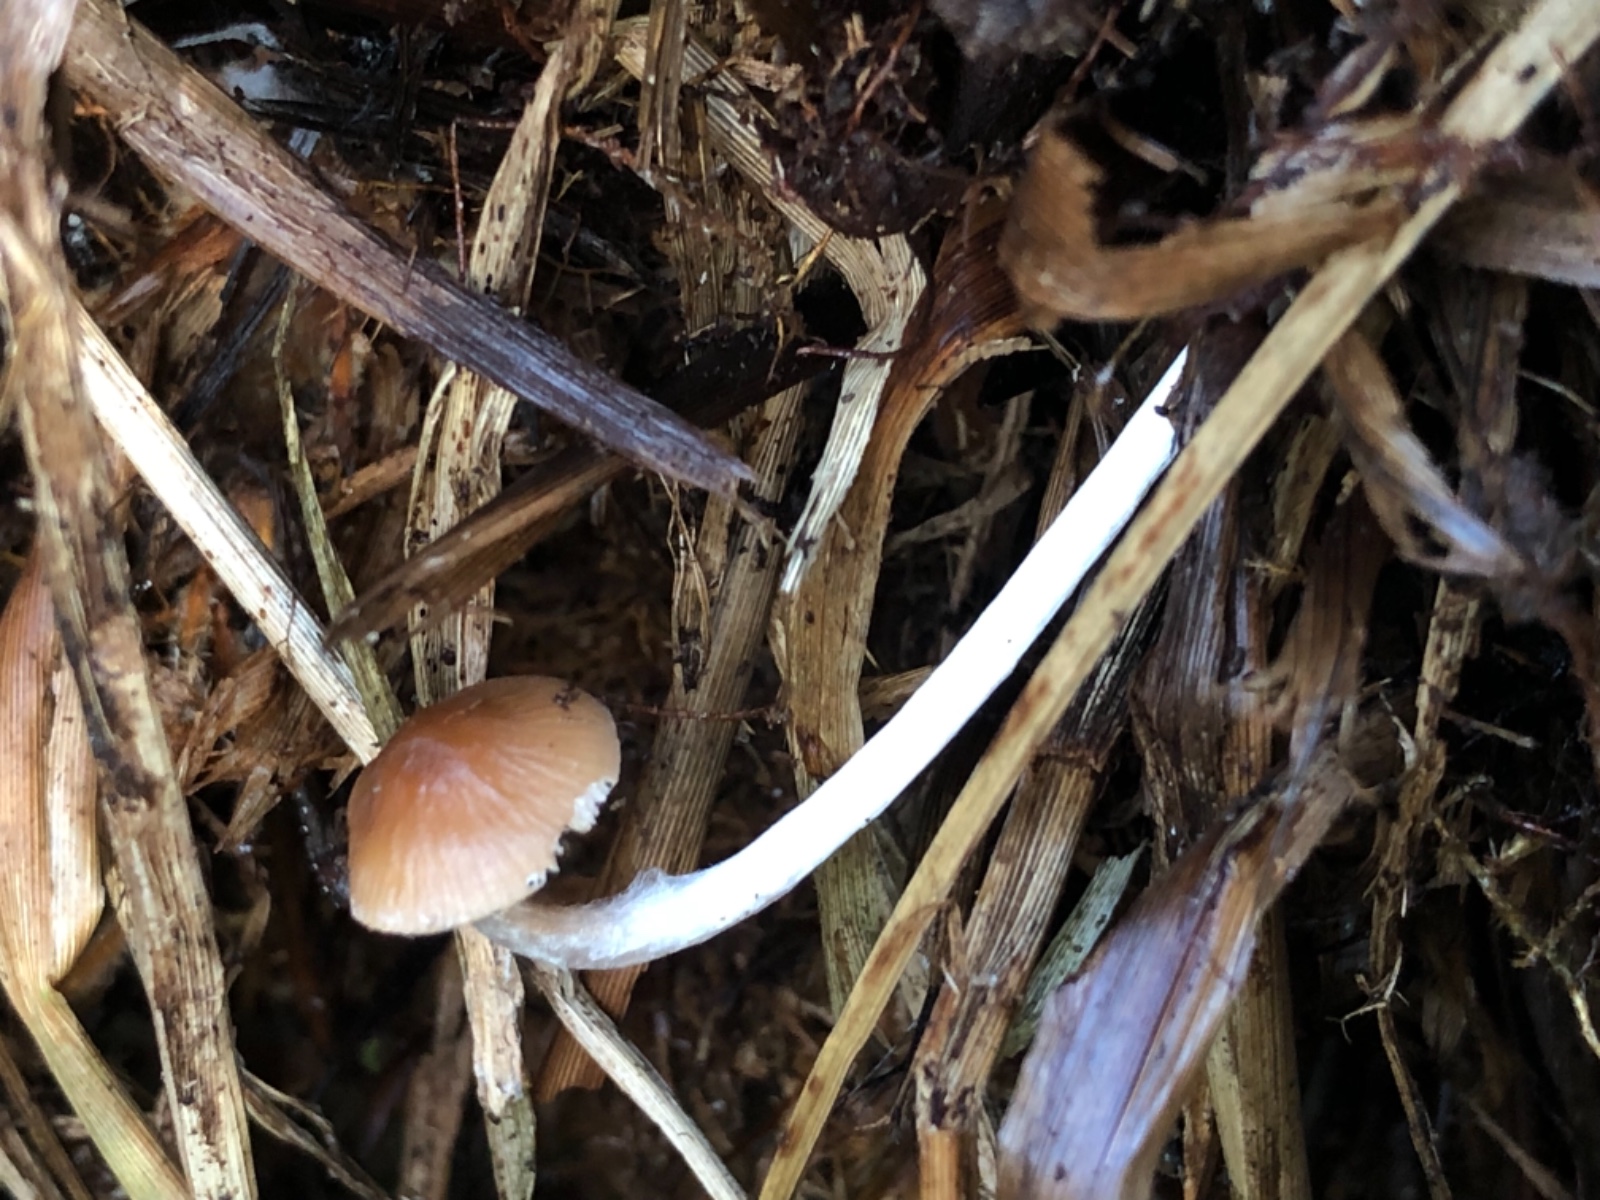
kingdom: Fungi
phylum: Basidiomycota
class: Agaricomycetes
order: Agaricales
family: Hymenogastraceae
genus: Naucoria
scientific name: Naucoria bohemica
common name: birke-knaphat
